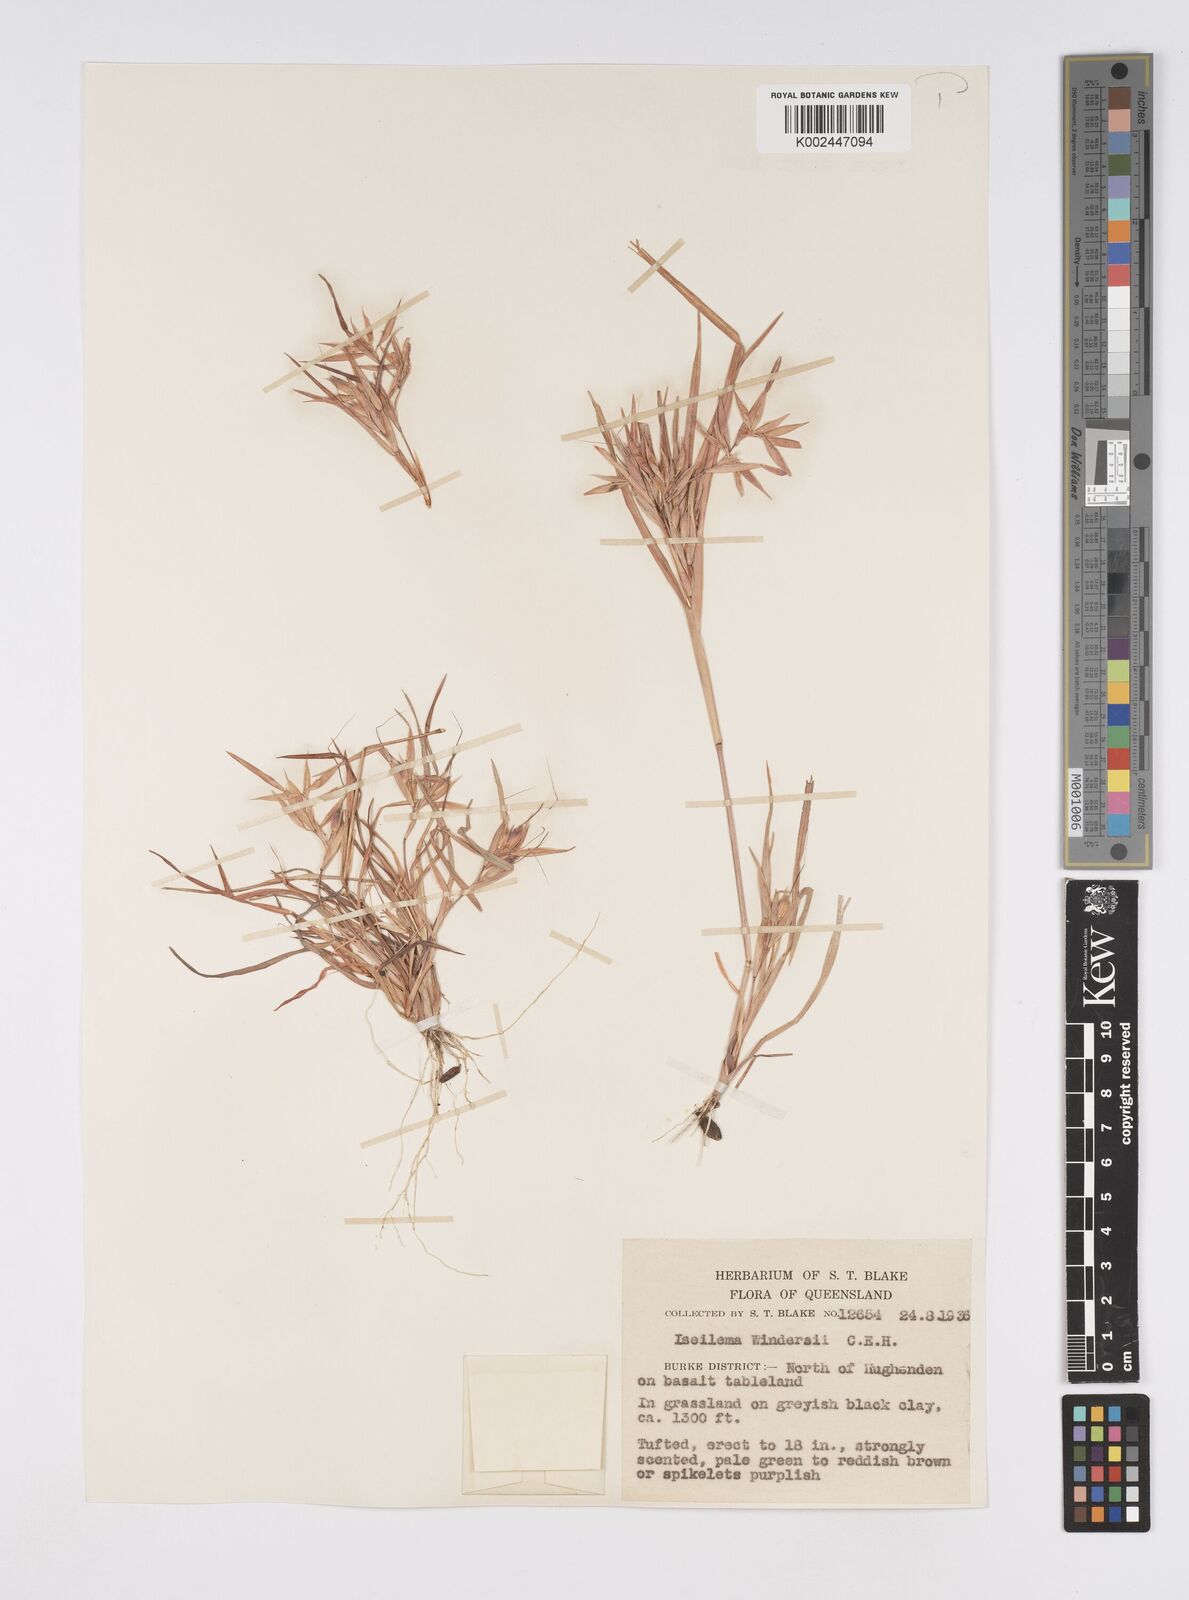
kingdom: Plantae
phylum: Tracheophyta
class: Liliopsida
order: Poales
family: Poaceae
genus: Iseilema
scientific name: Iseilema windersii
